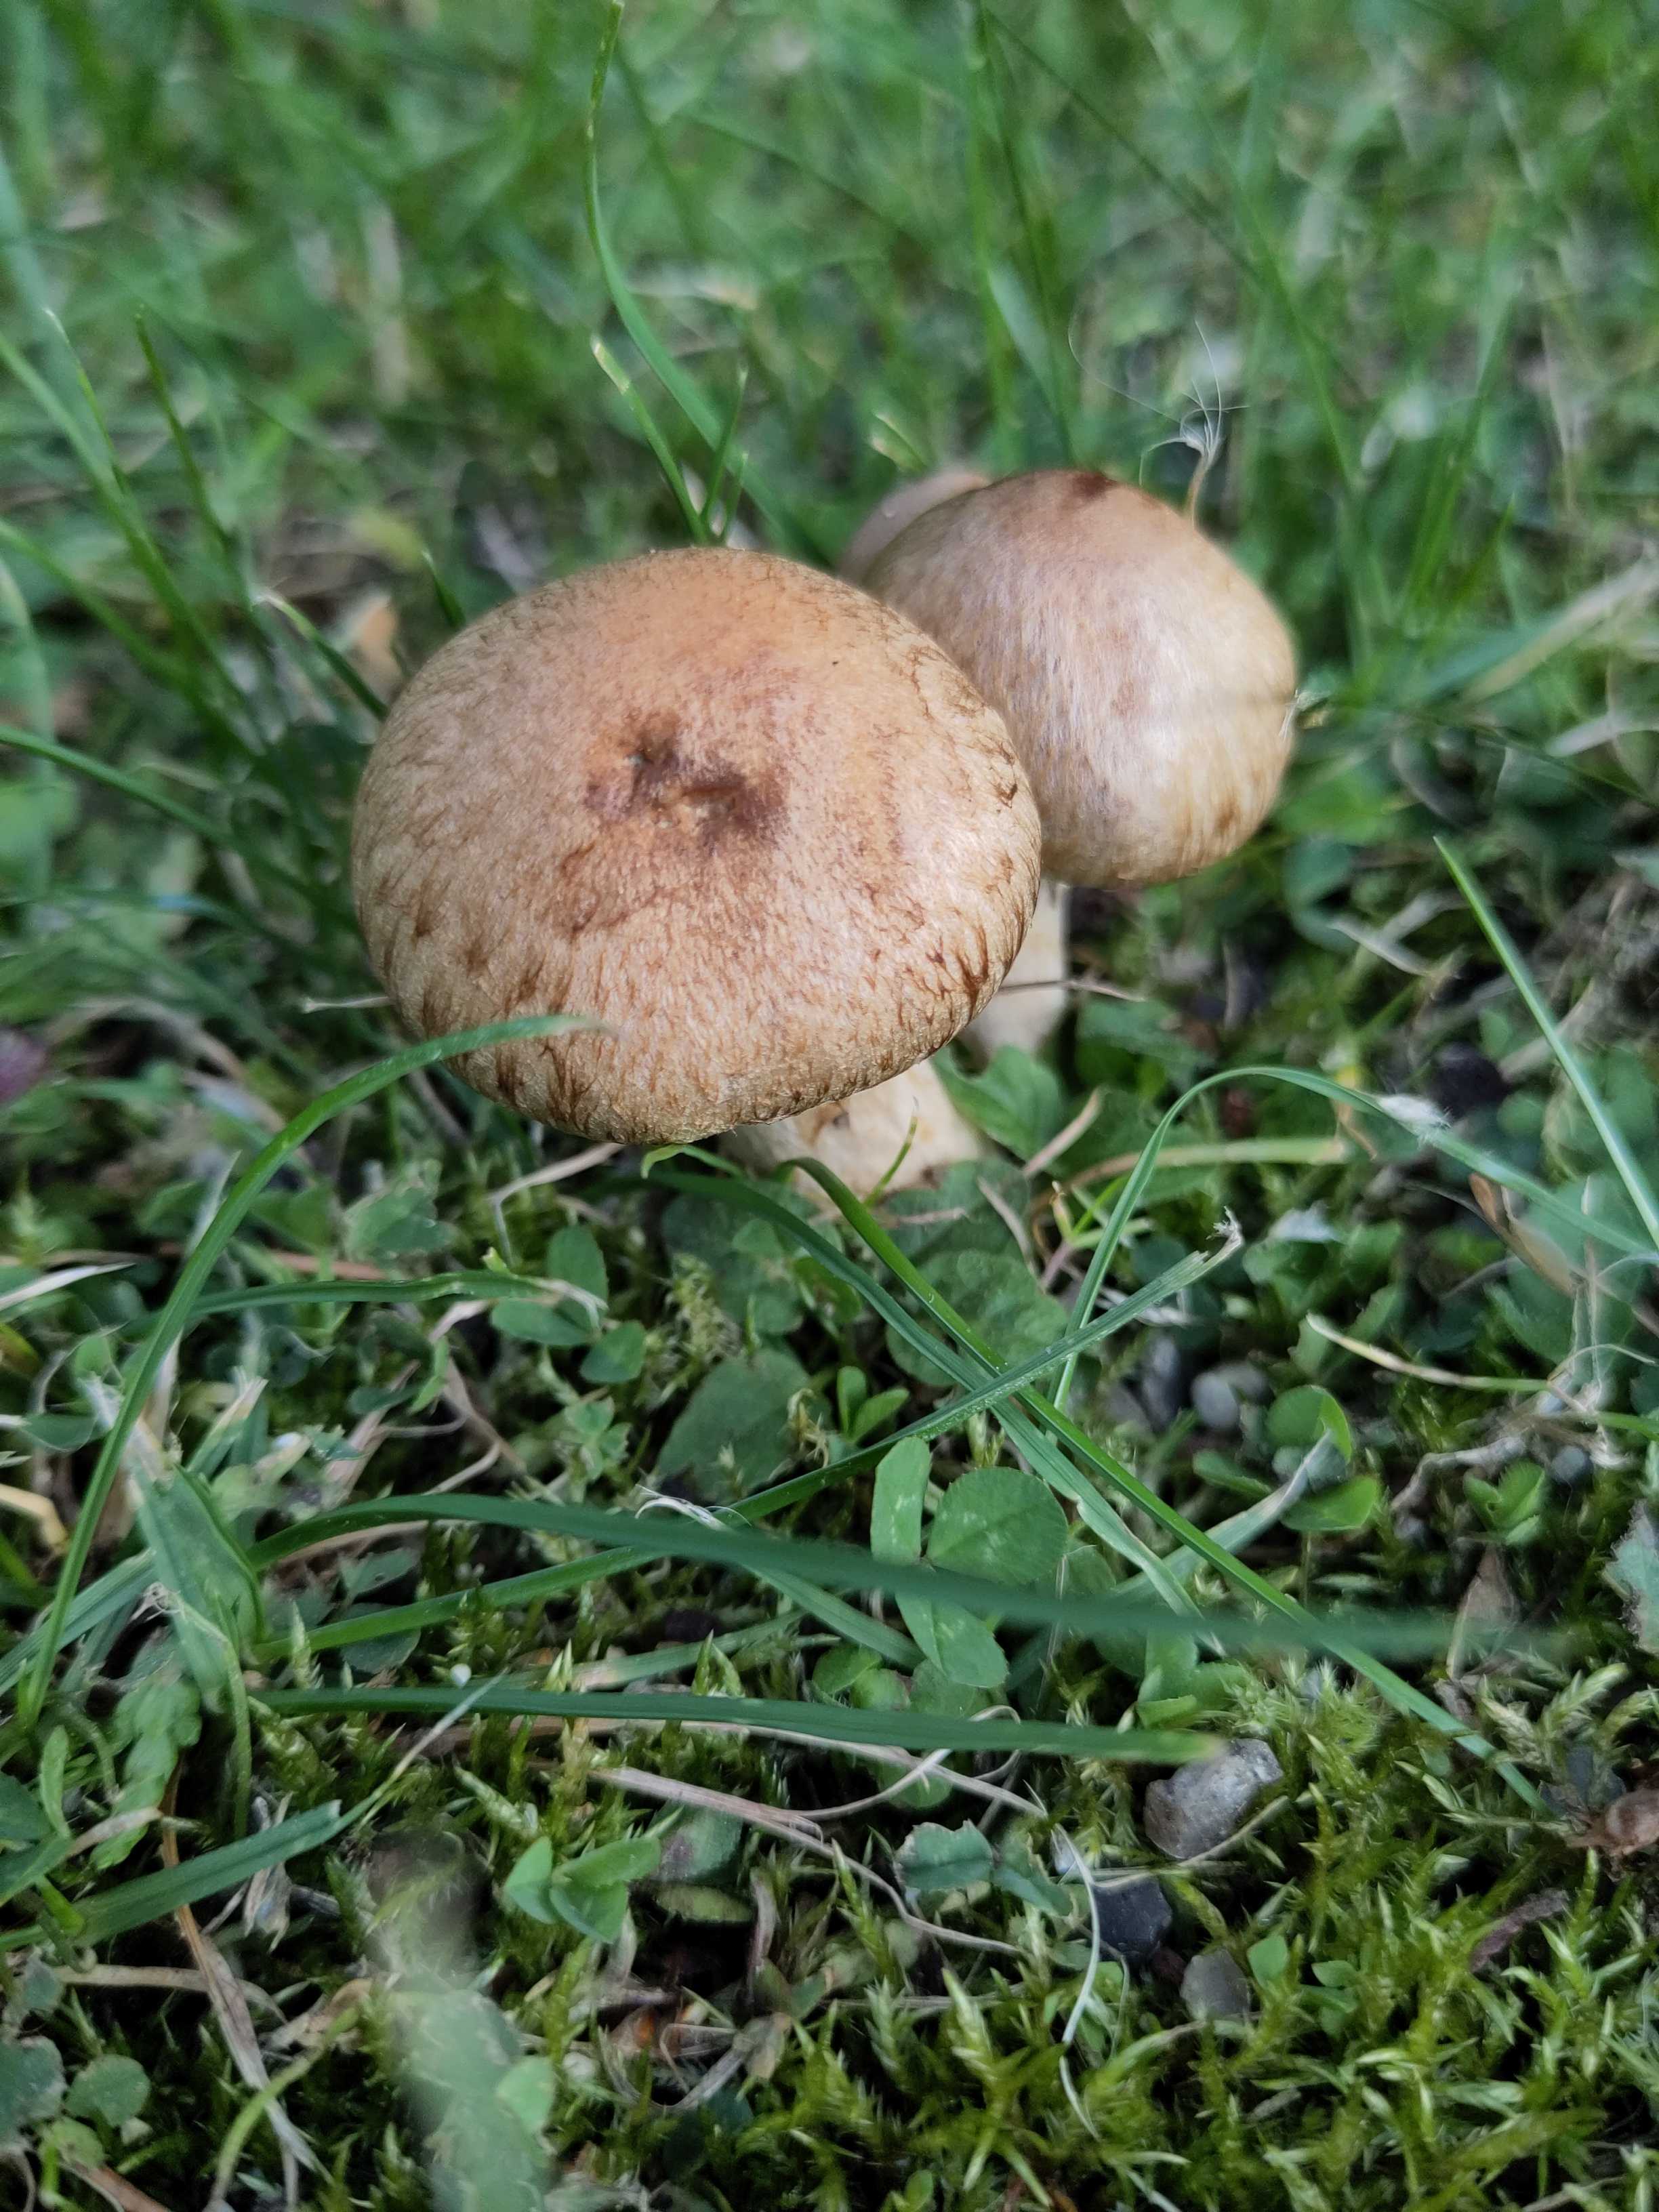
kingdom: Fungi
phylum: Basidiomycota
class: Agaricomycetes
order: Agaricales
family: Psathyrellaceae
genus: Lacrymaria
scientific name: Lacrymaria lacrymabunda
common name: grædende mørkhat
